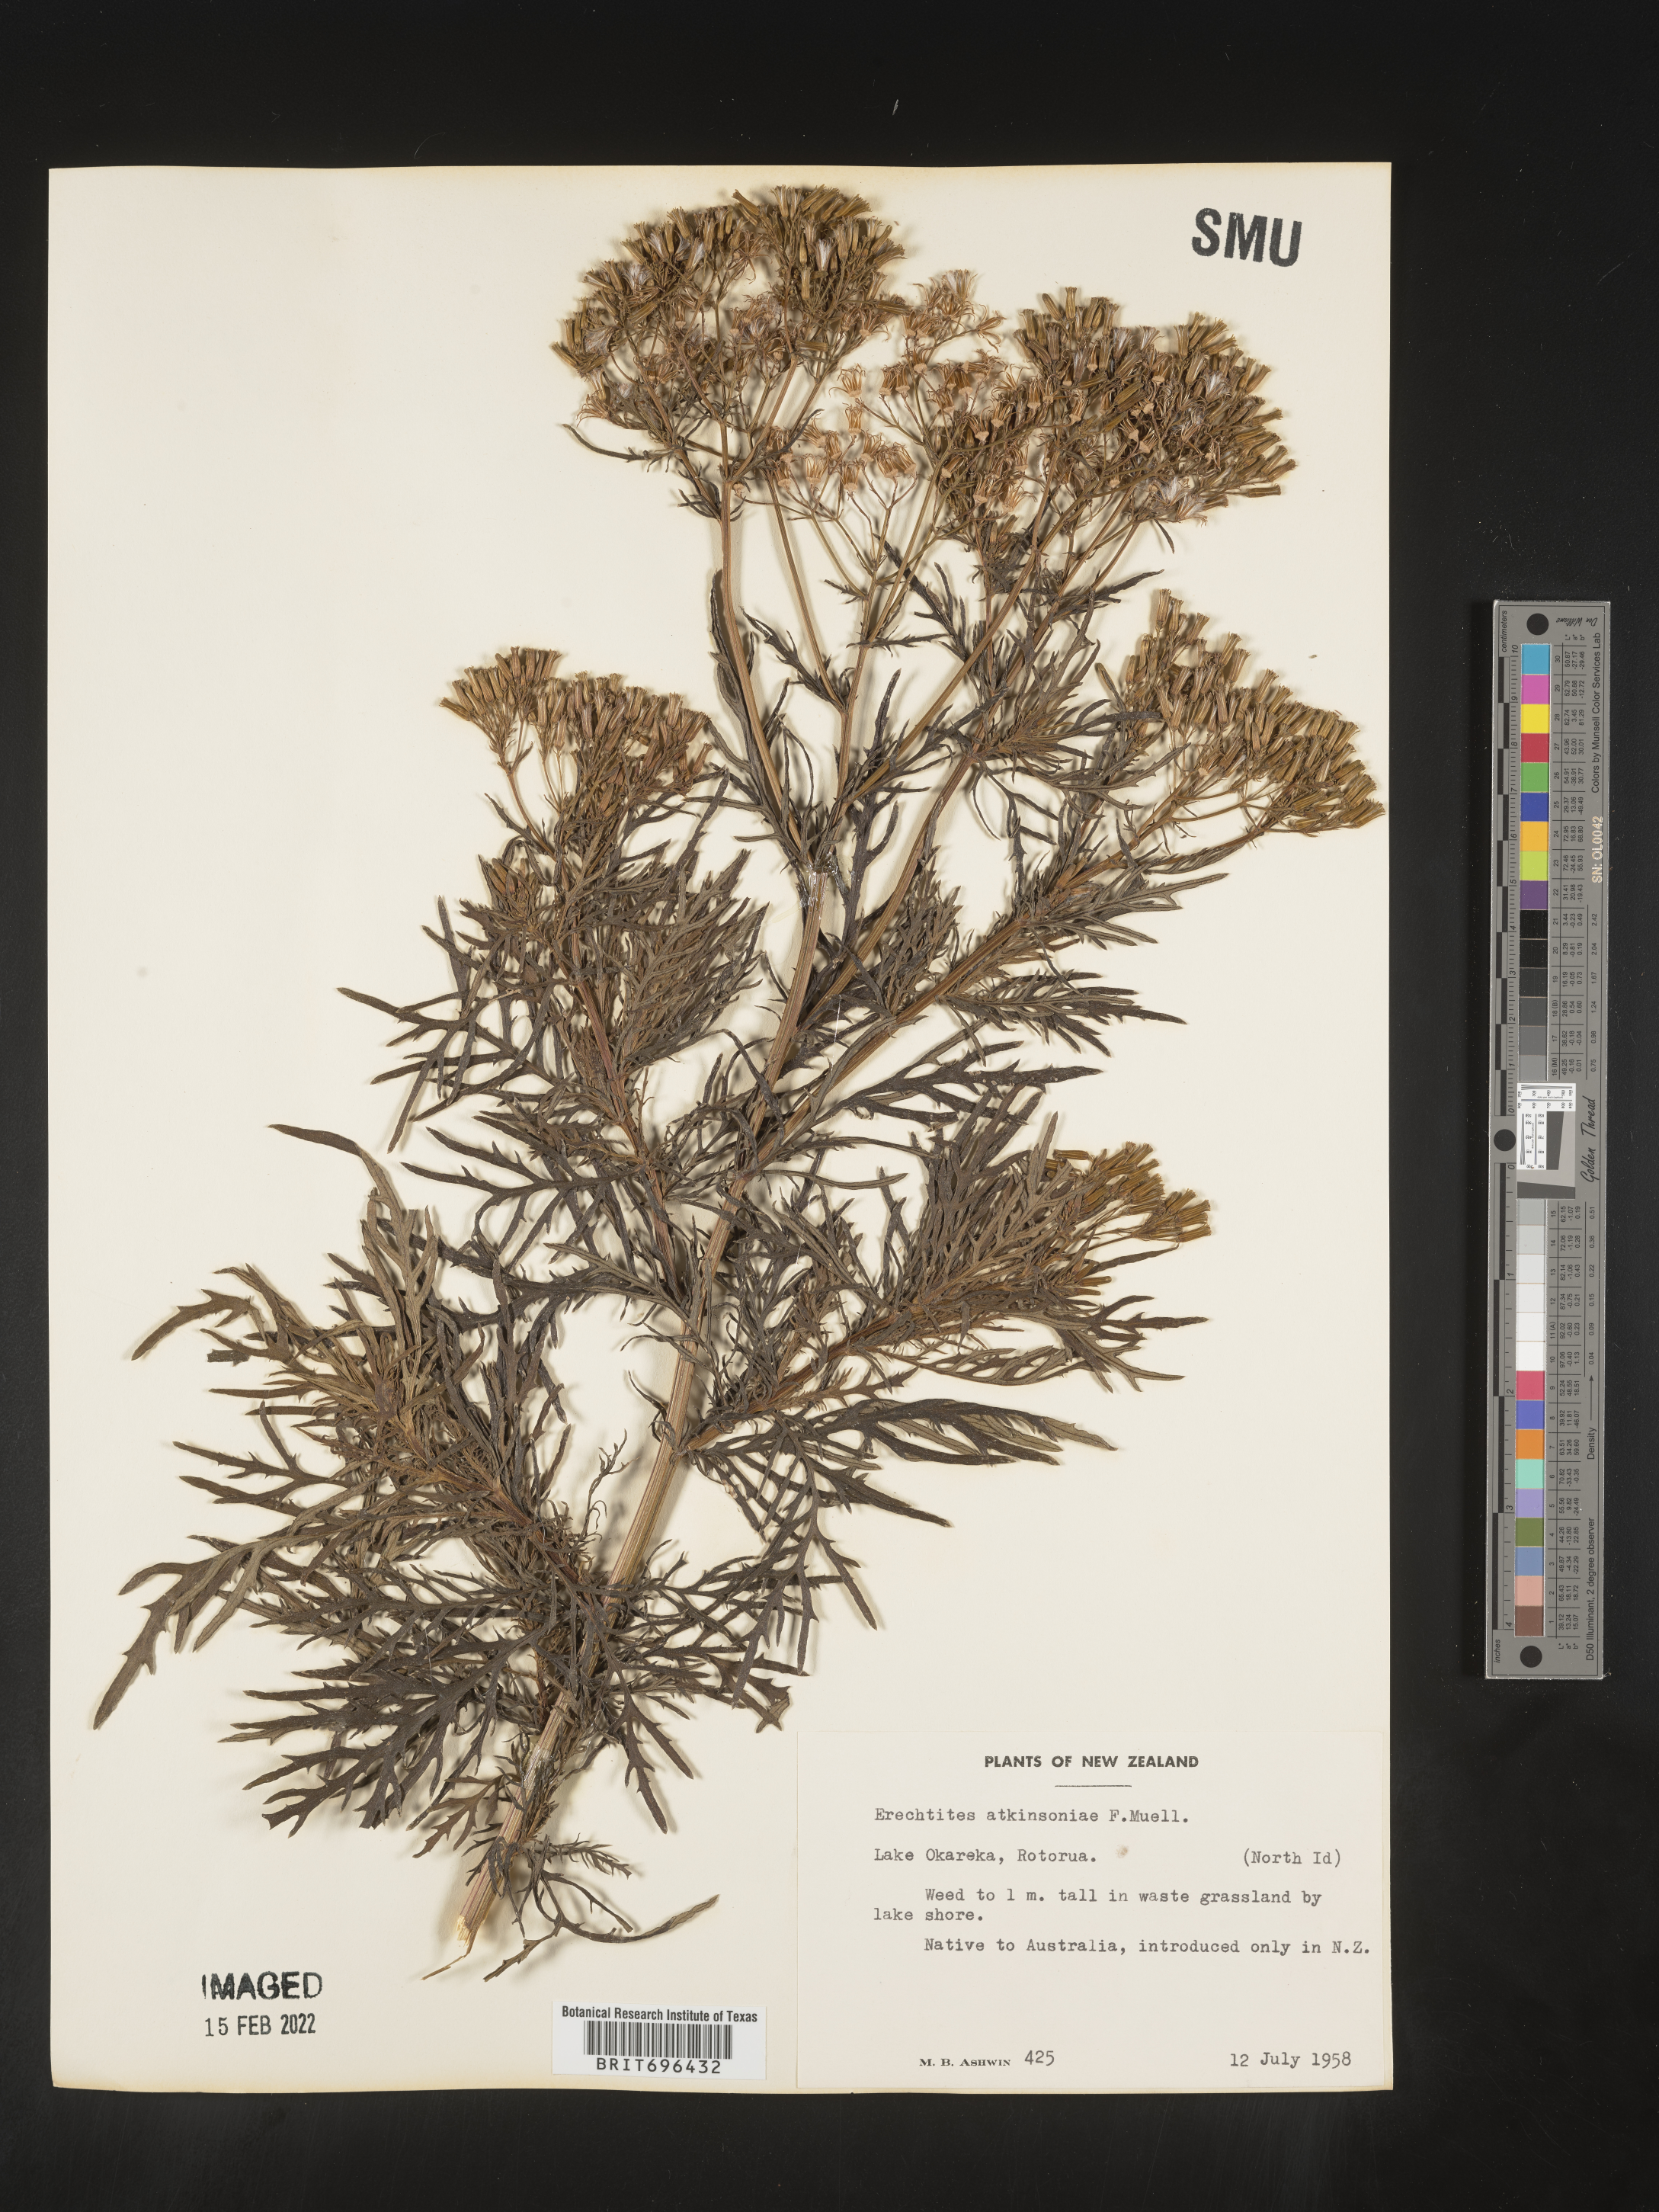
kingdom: Plantae
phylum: Tracheophyta
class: Magnoliopsida
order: Asterales
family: Asteraceae
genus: Erechtites
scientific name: Erechtites
